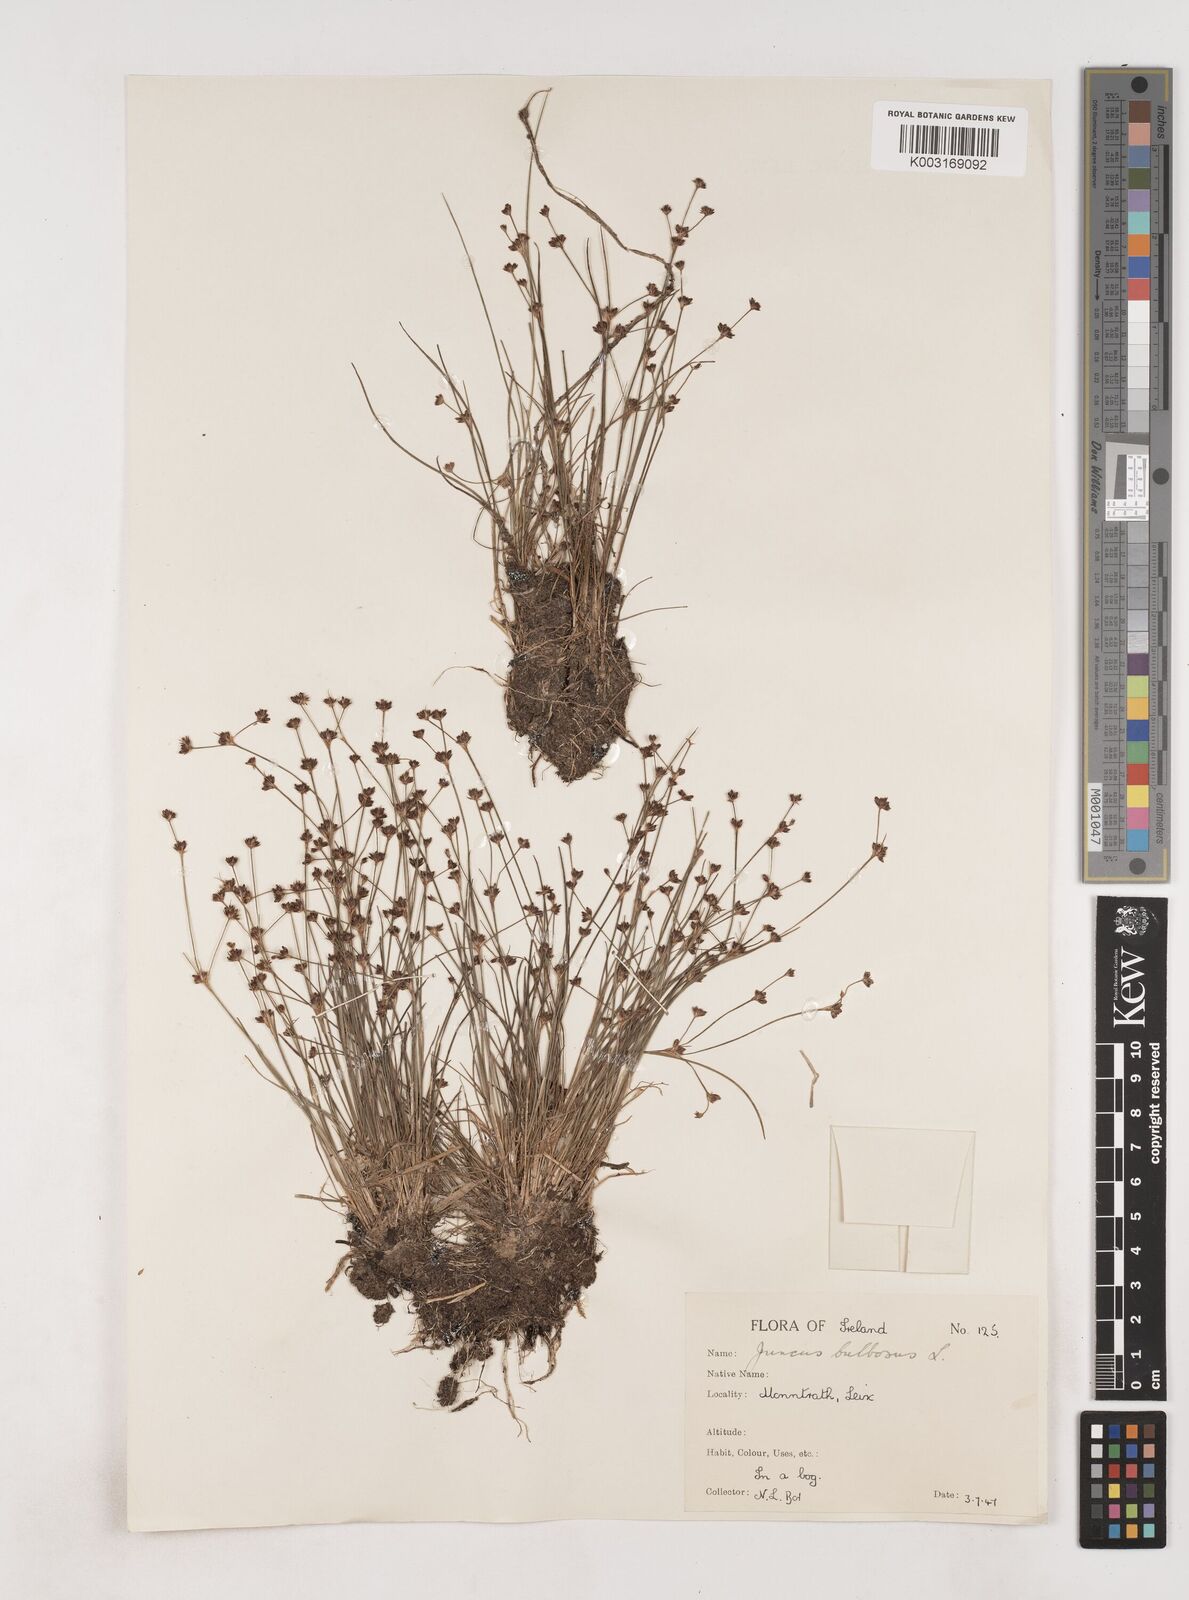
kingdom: Plantae
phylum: Tracheophyta
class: Liliopsida
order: Poales
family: Juncaceae
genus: Juncus
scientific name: Juncus bulbosus
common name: Bulbous rush
